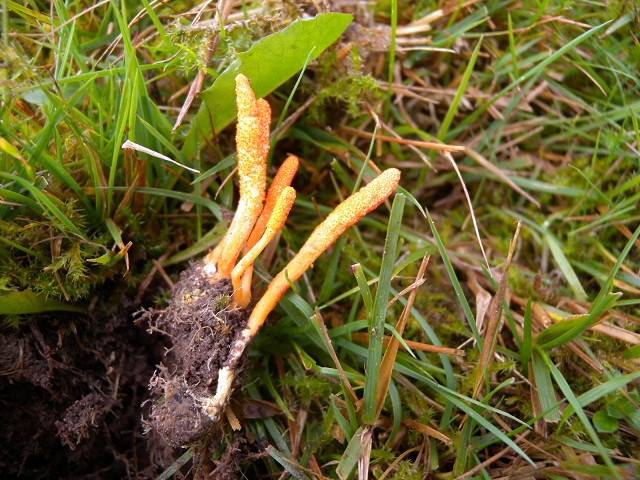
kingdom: Fungi
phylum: Ascomycota
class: Sordariomycetes
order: Hypocreales
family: Cordycipitaceae
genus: Cordyceps
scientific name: Cordyceps militaris
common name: puppe-snyltekølle
